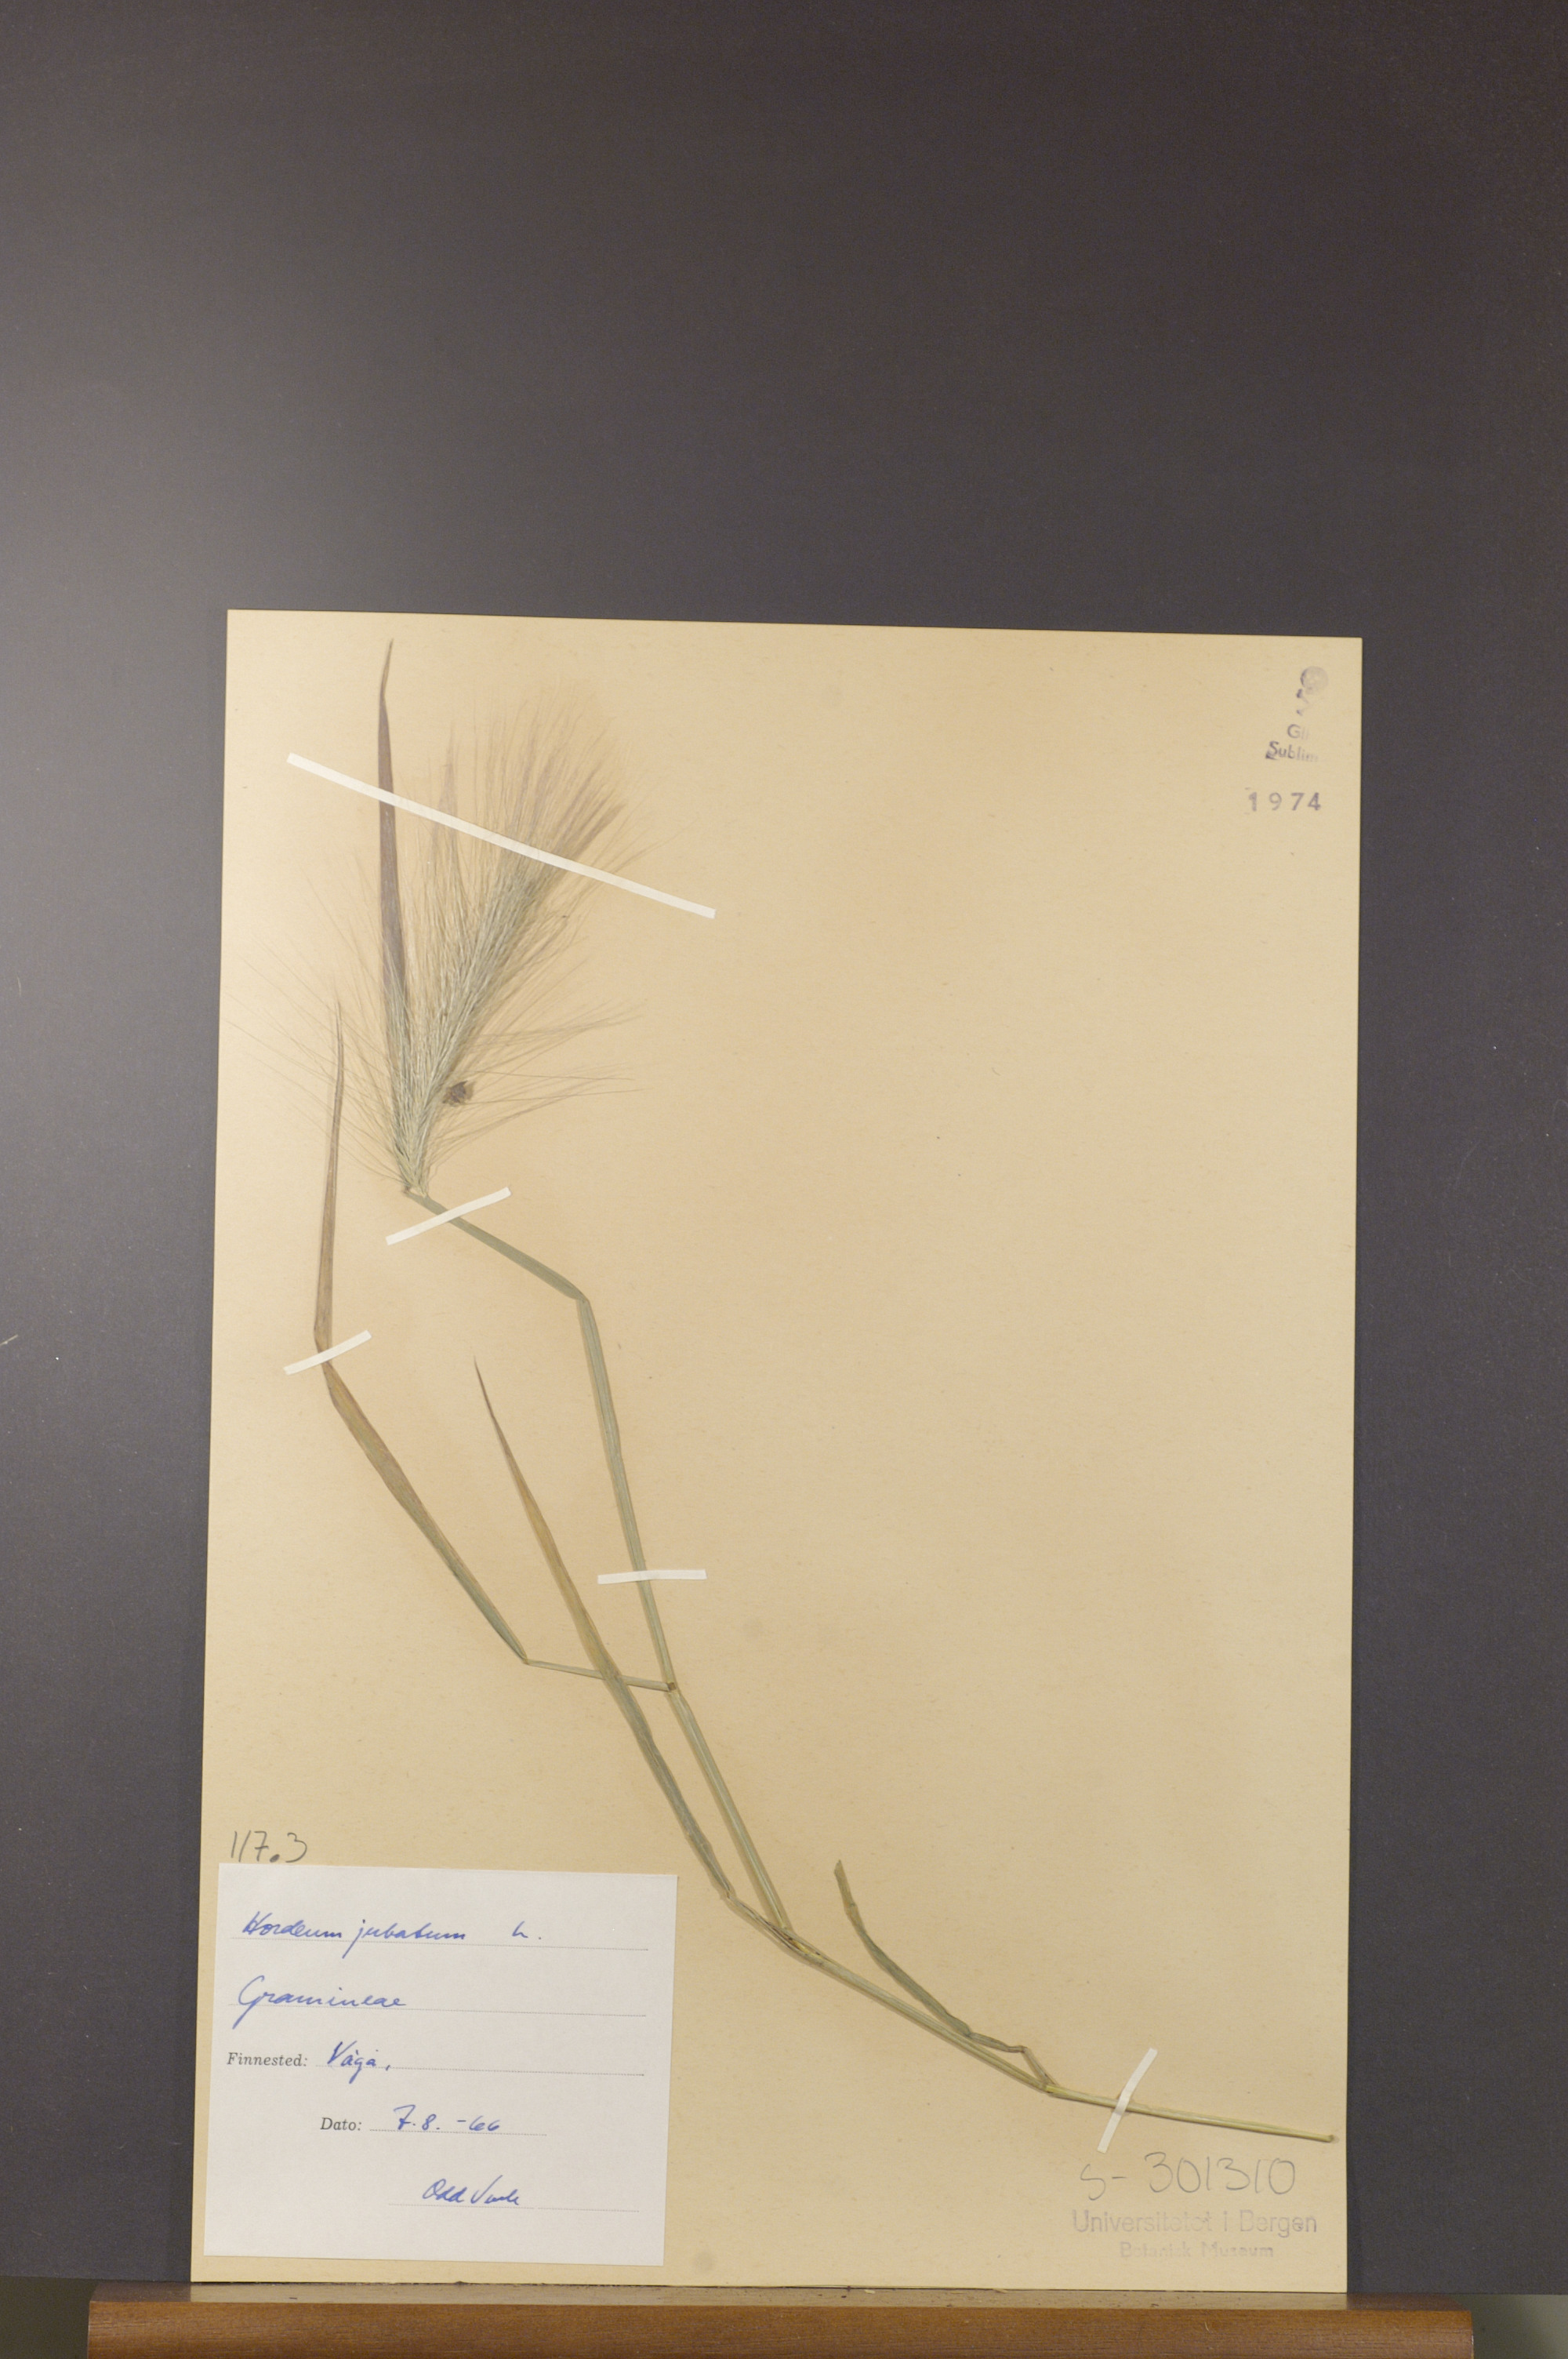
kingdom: Plantae
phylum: Tracheophyta
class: Liliopsida
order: Poales
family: Poaceae
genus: Hordeum
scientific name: Hordeum jubatum
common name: Foxtail barley
